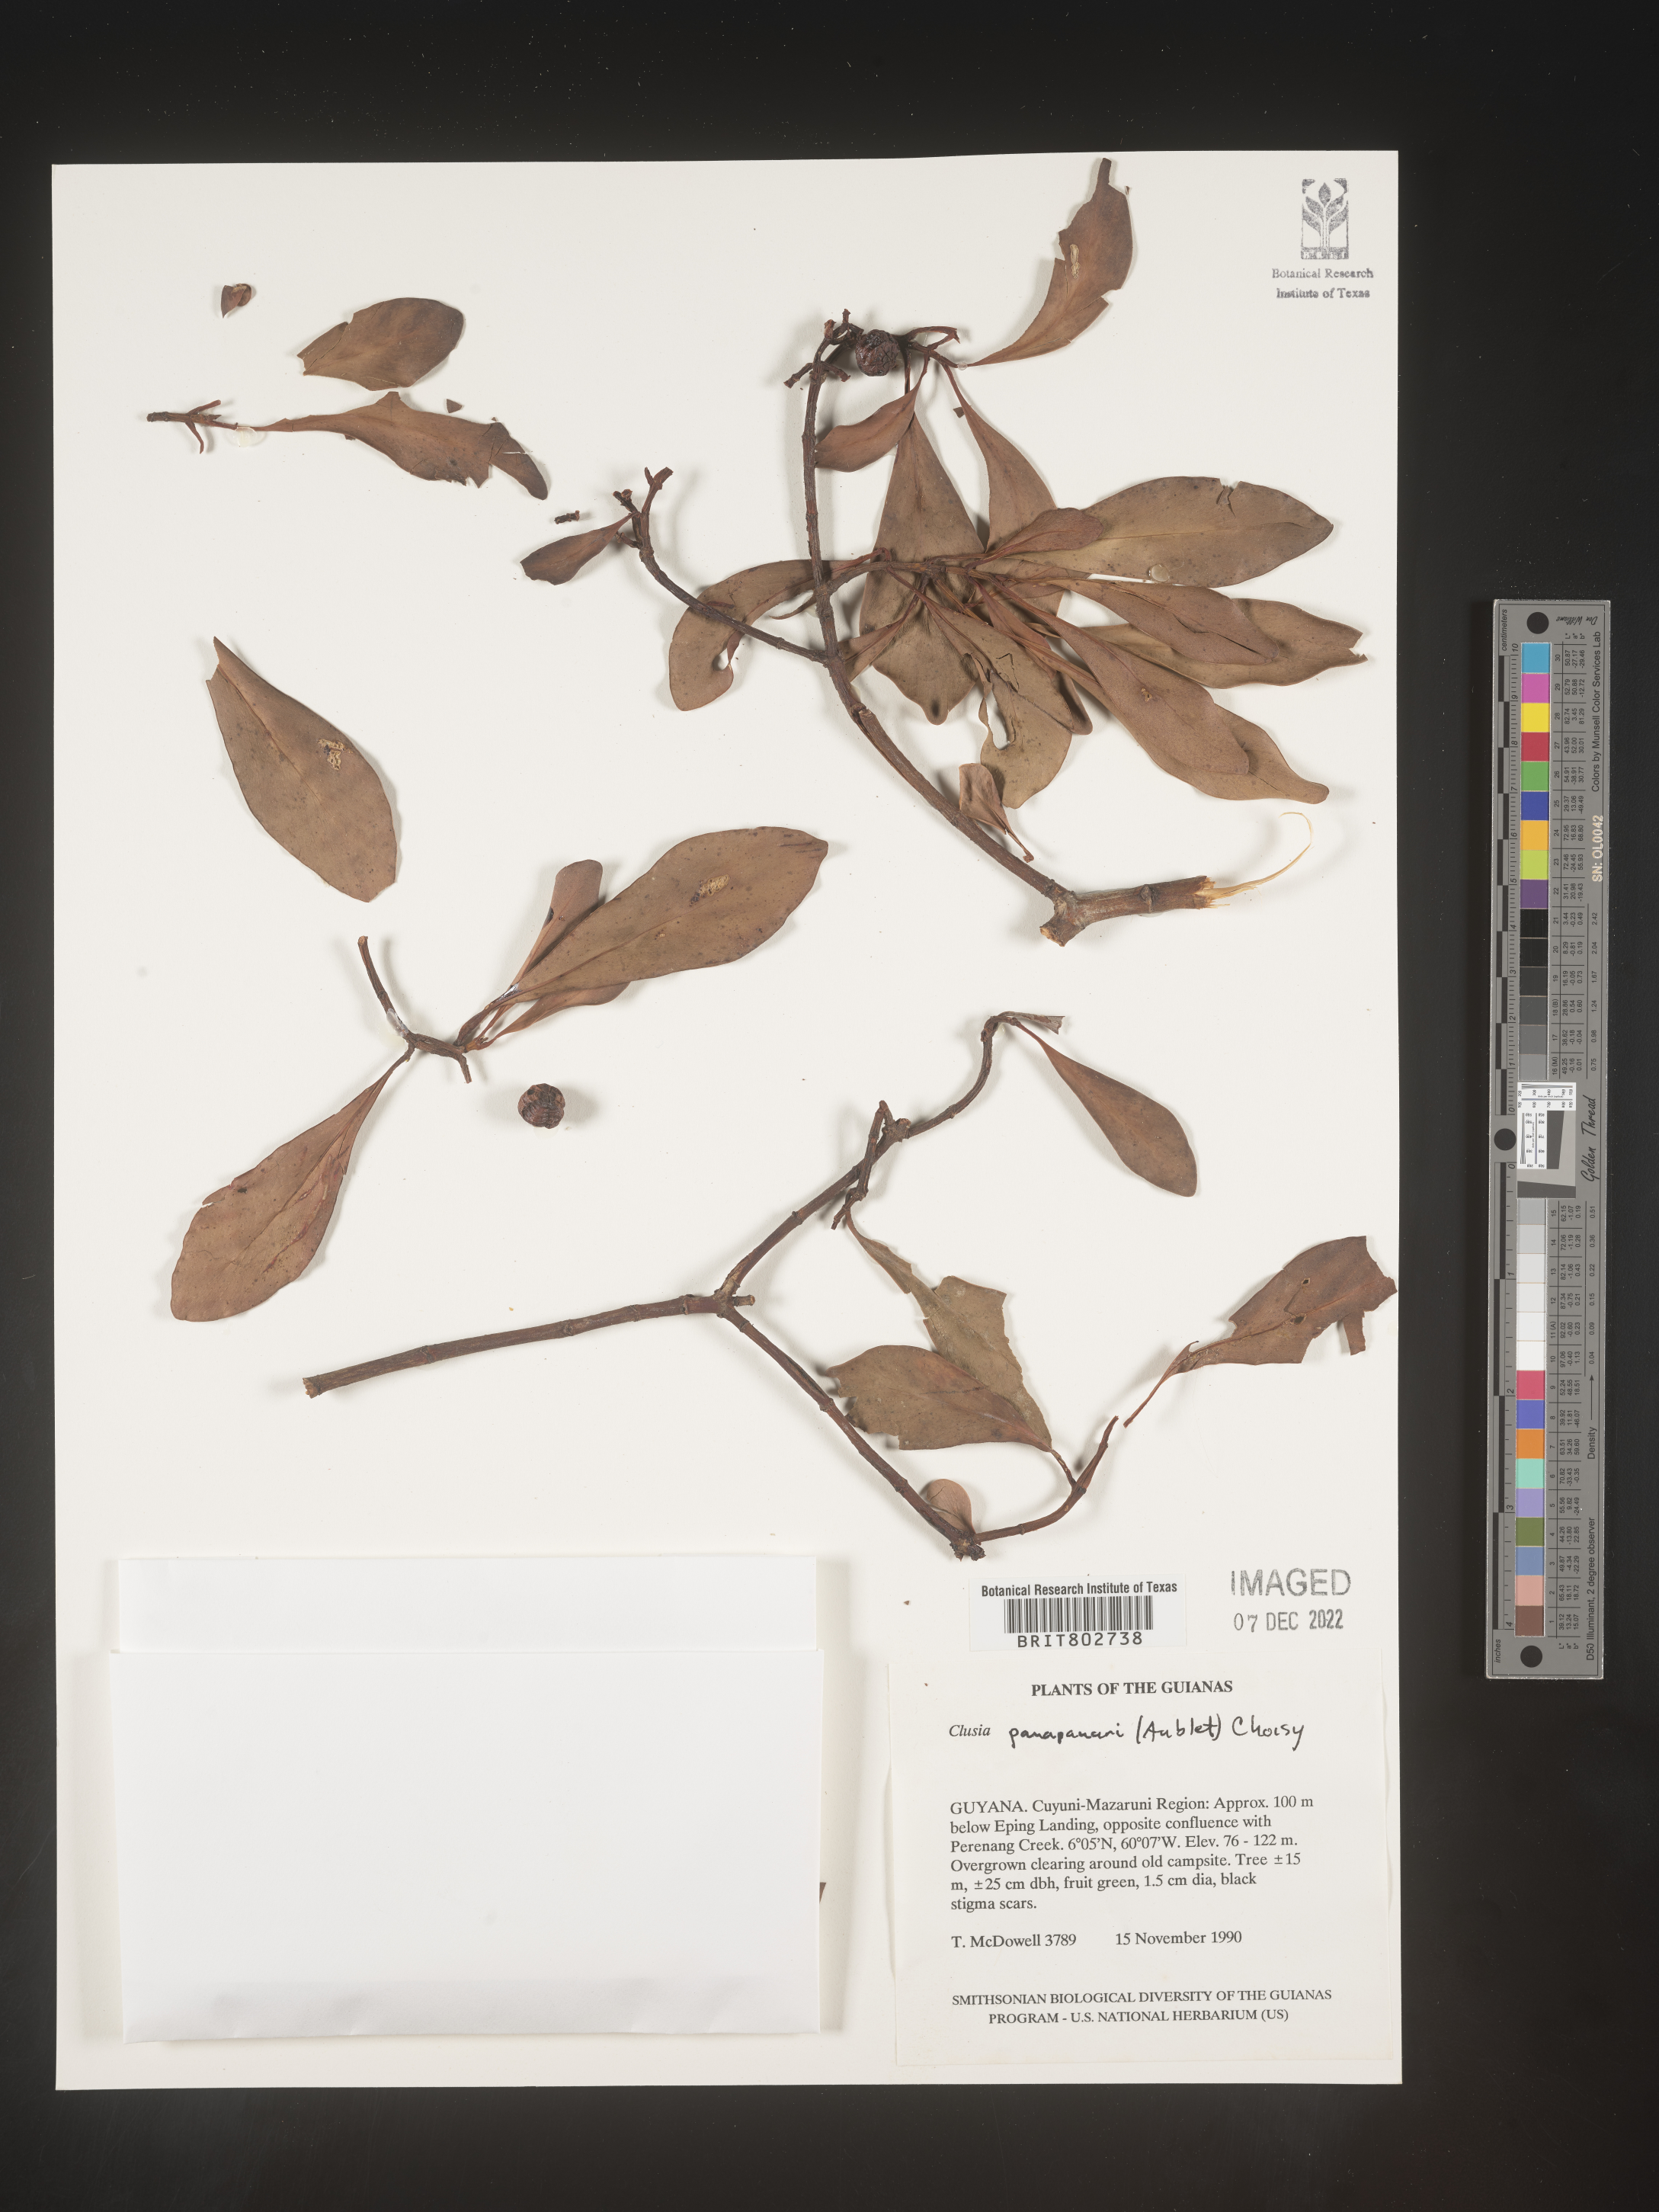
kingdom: Plantae
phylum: Tracheophyta
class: Magnoliopsida
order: Malpighiales
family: Clusiaceae
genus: Clusia
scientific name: Clusia panapanari
